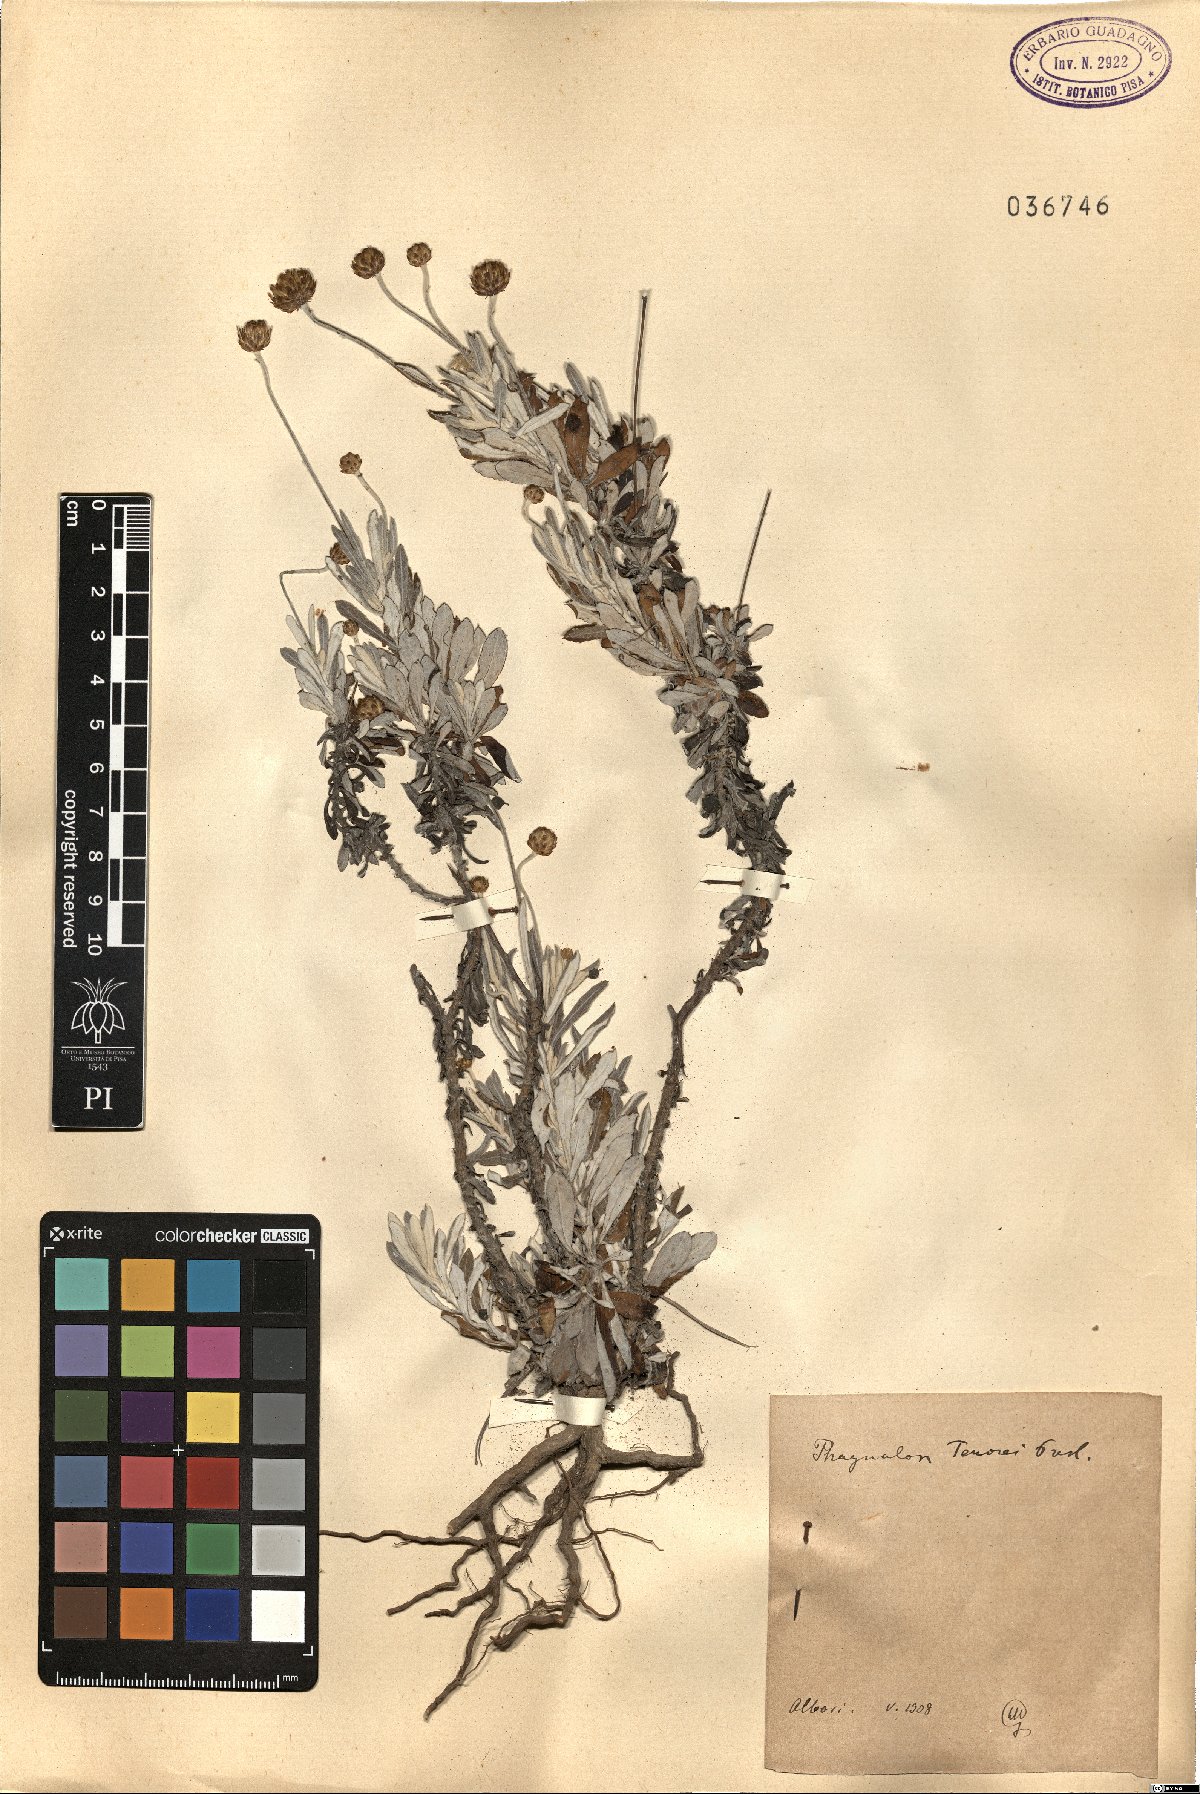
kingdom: Plantae
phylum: Tracheophyta
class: Magnoliopsida
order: Asterales
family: Asteraceae
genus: Phagnalon
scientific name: Phagnalon graecum
